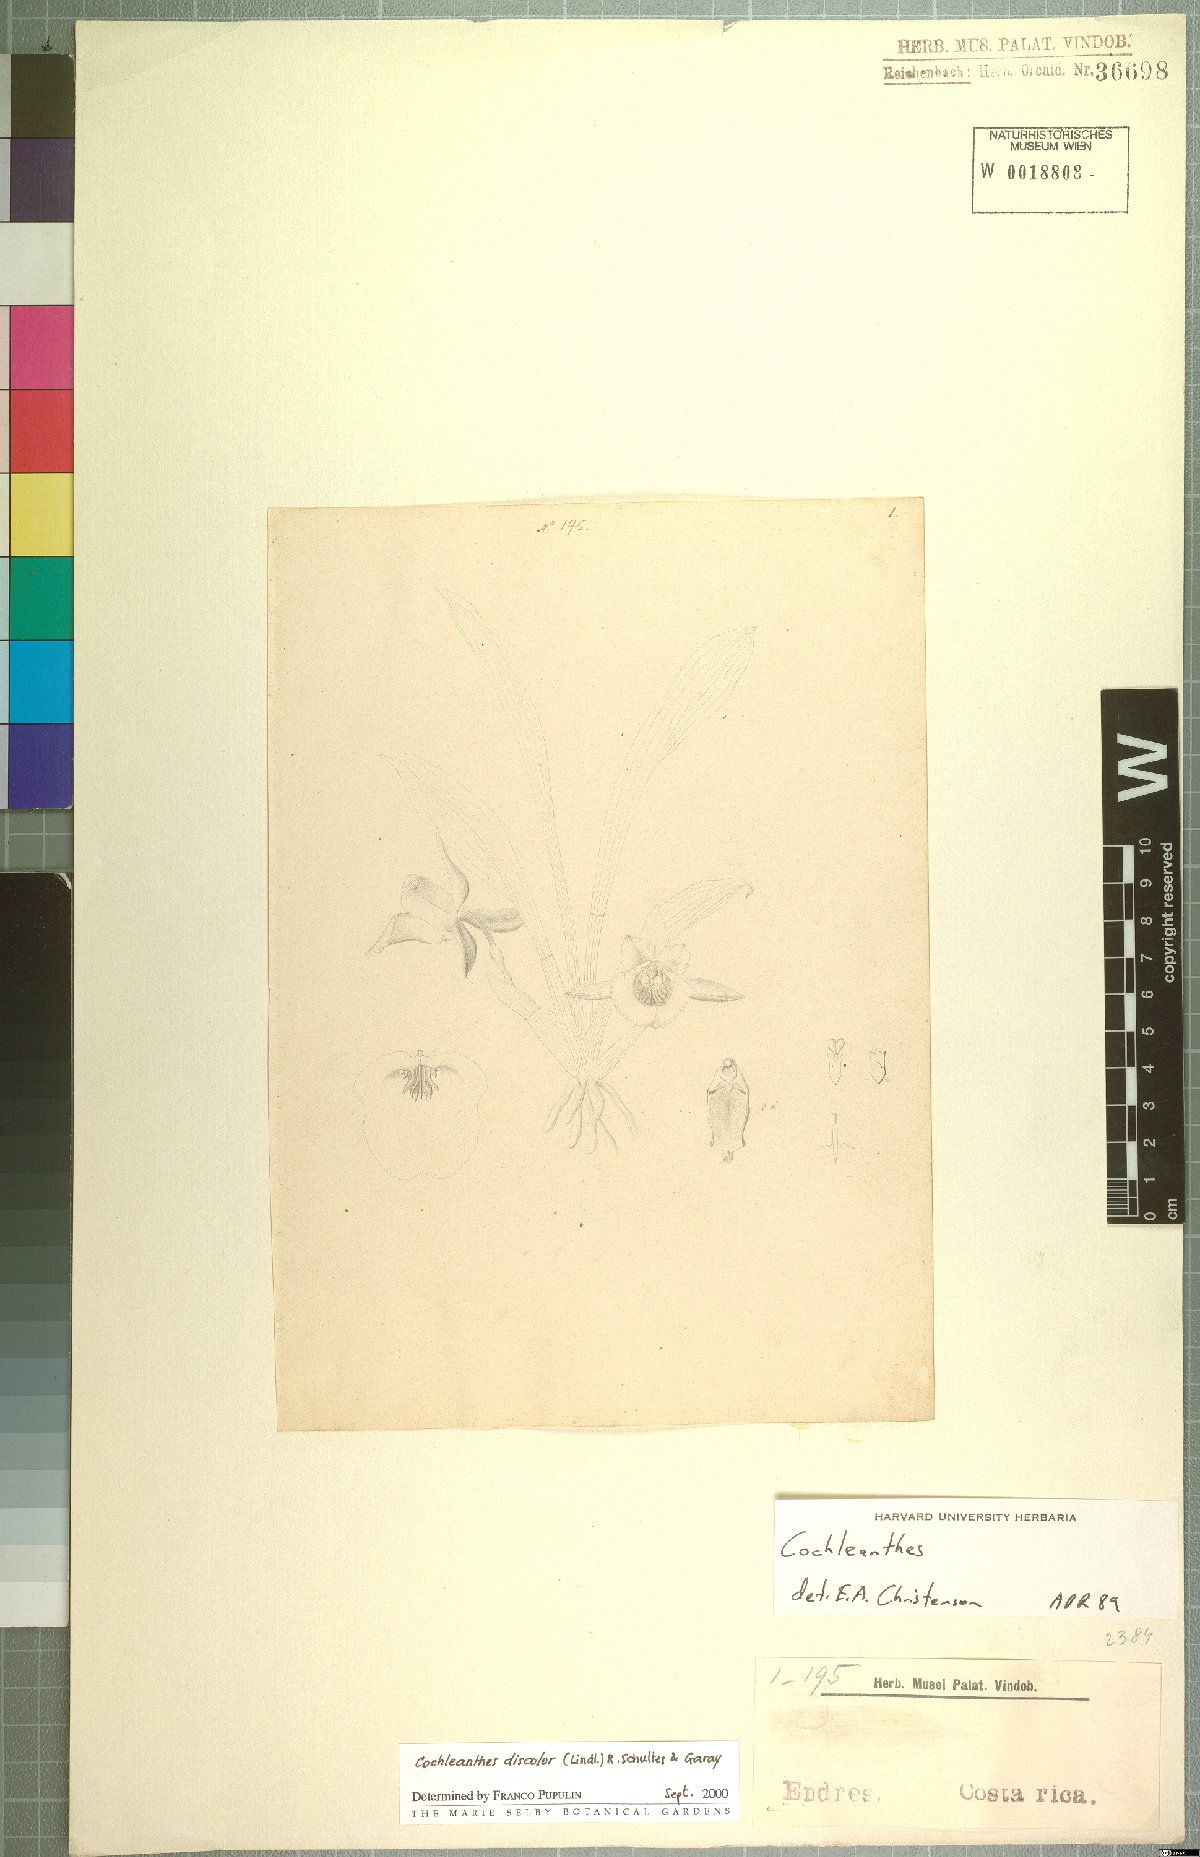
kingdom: Plantae
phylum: Tracheophyta
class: Liliopsida
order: Asparagales
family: Orchidaceae
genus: Warczewiczella
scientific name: Warczewiczella discolor
